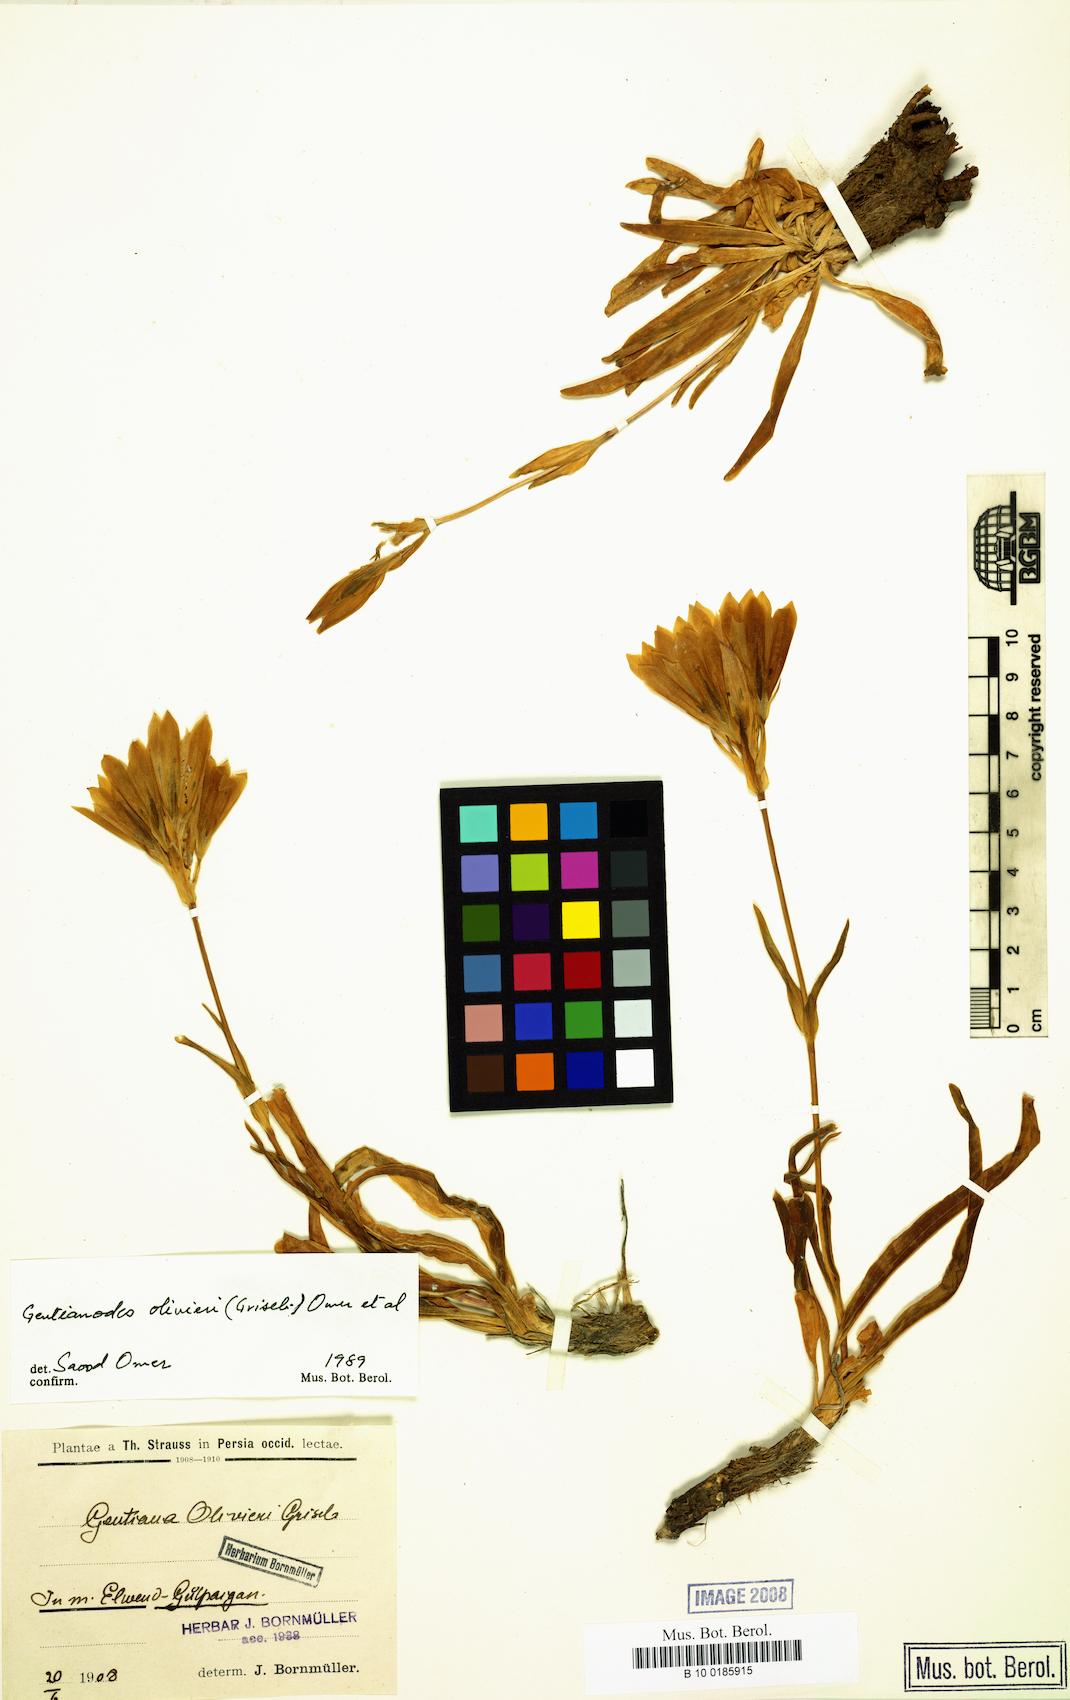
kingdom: Plantae
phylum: Tracheophyta
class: Magnoliopsida
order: Gentianales
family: Gentianaceae
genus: Gentiana
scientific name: Gentiana olivieri
